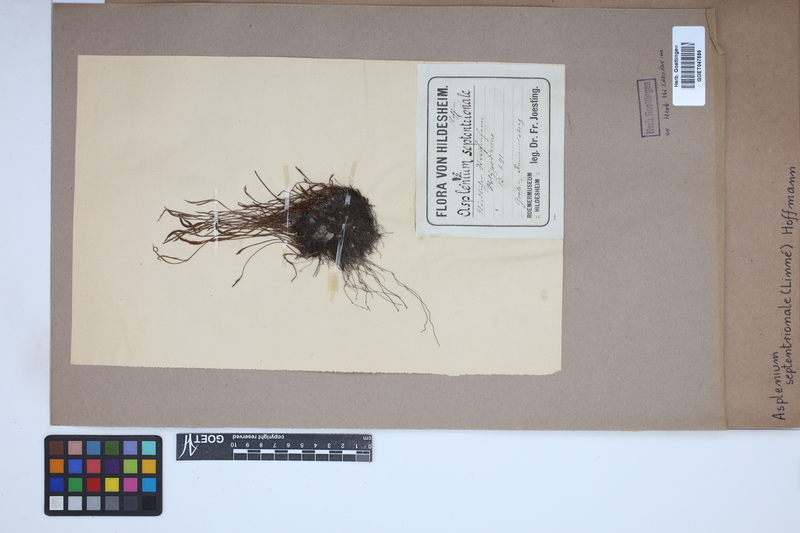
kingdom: Plantae
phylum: Tracheophyta
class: Polypodiopsida
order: Polypodiales
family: Aspleniaceae
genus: Asplenium
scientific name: Asplenium septentrionale
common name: Forked spleenwort
